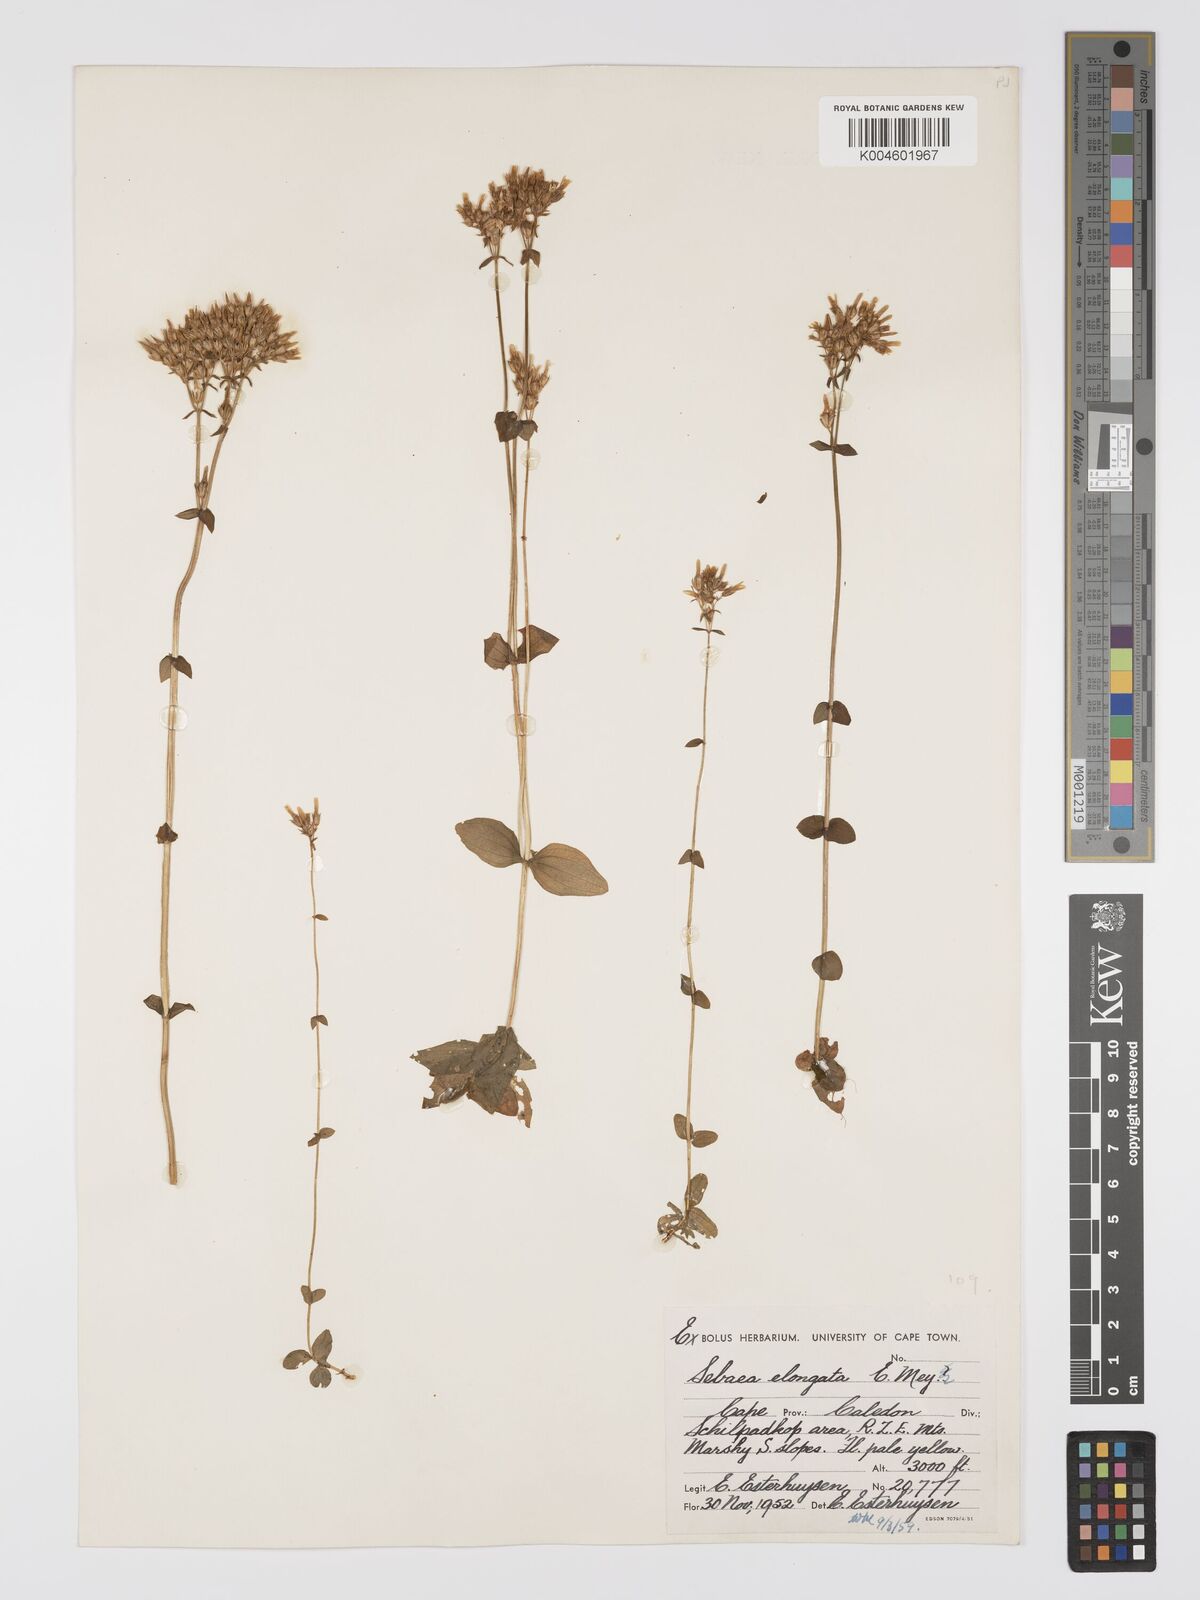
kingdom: Plantae
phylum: Tracheophyta
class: Magnoliopsida
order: Gentianales
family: Gentianaceae
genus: Sebaea
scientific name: Sebaea elongata
